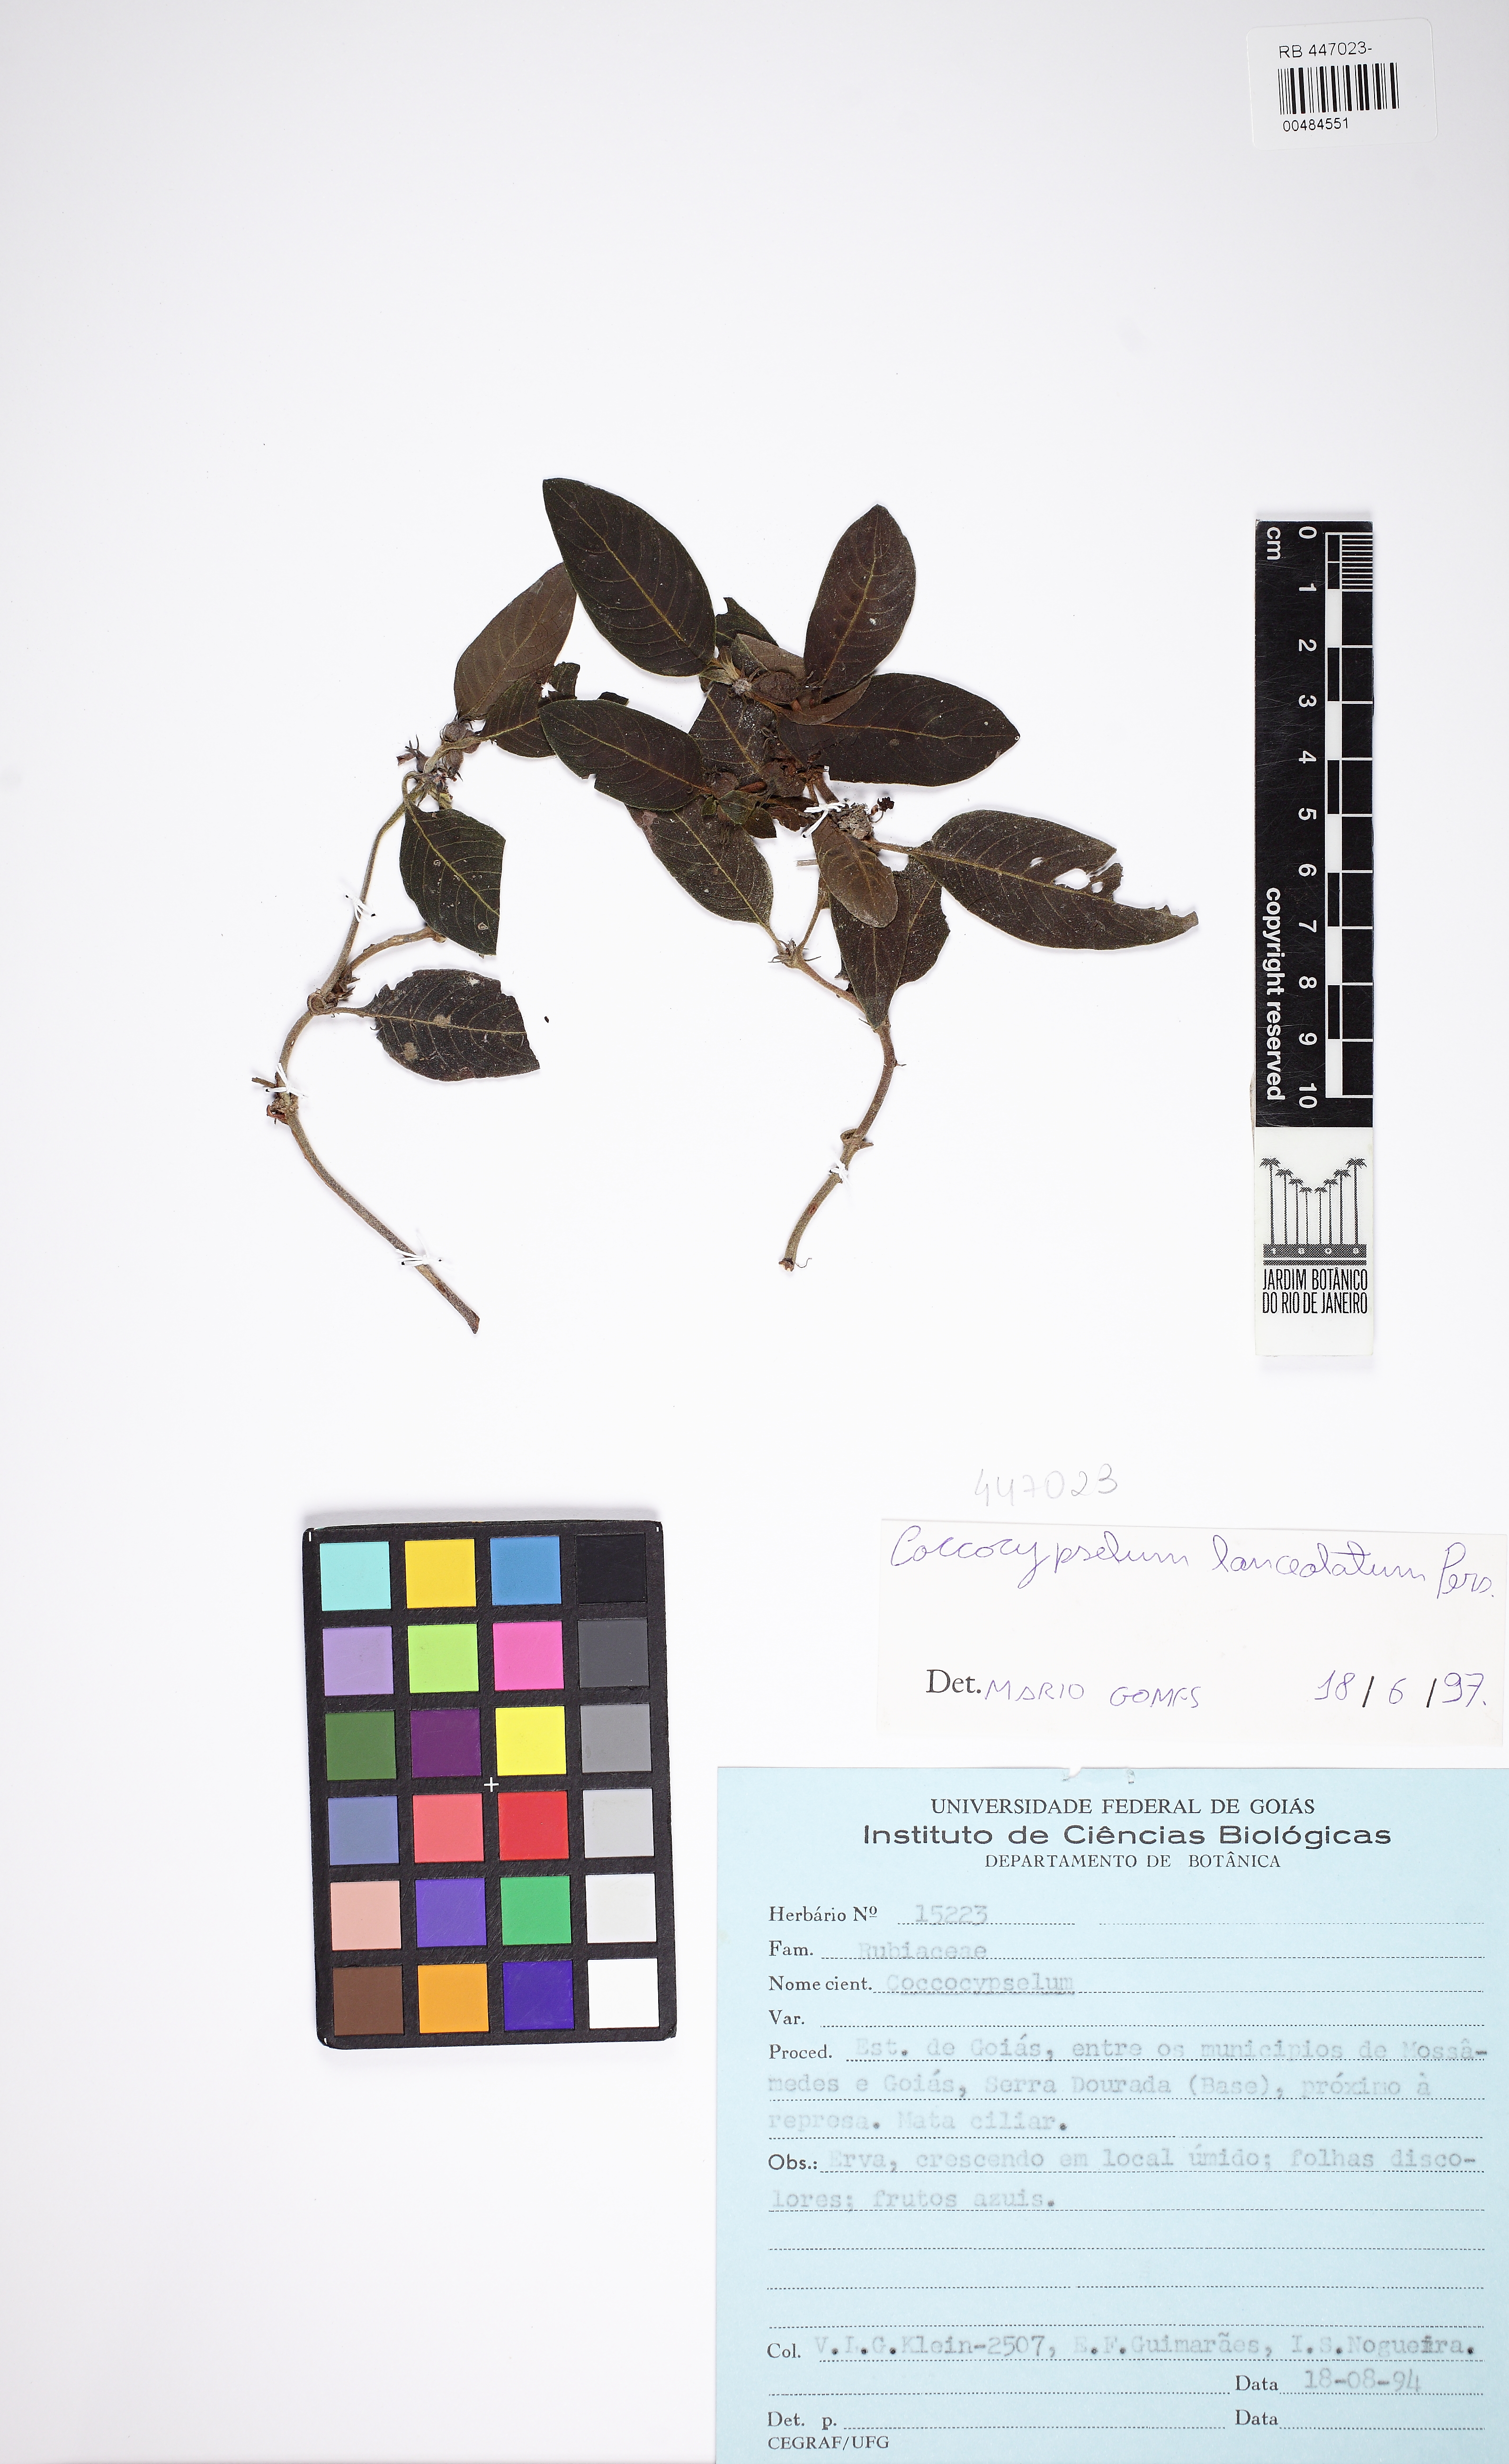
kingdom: Plantae
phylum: Tracheophyta
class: Magnoliopsida
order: Gentianales
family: Rubiaceae
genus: Coccocypselum
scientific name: Coccocypselum lanceolatum
